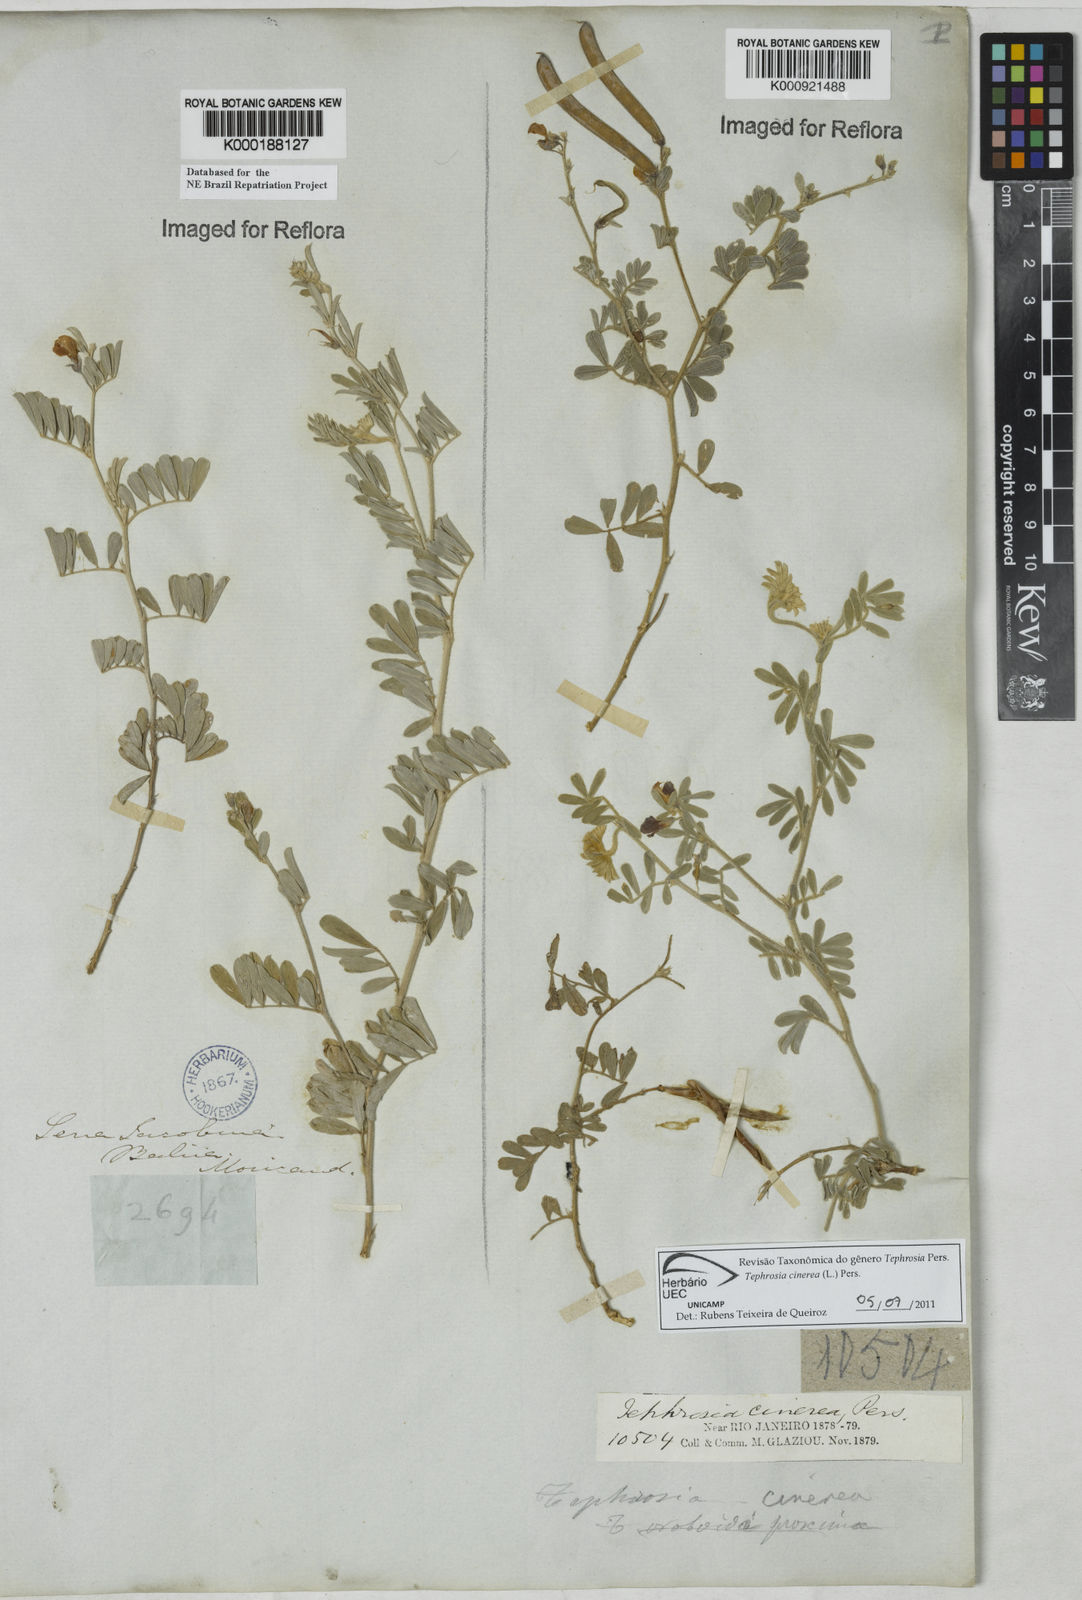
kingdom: Plantae
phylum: Tracheophyta
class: Magnoliopsida
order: Fabales
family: Fabaceae
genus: Tephrosia
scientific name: Tephrosia cinerea
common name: Ashen hoarypea
